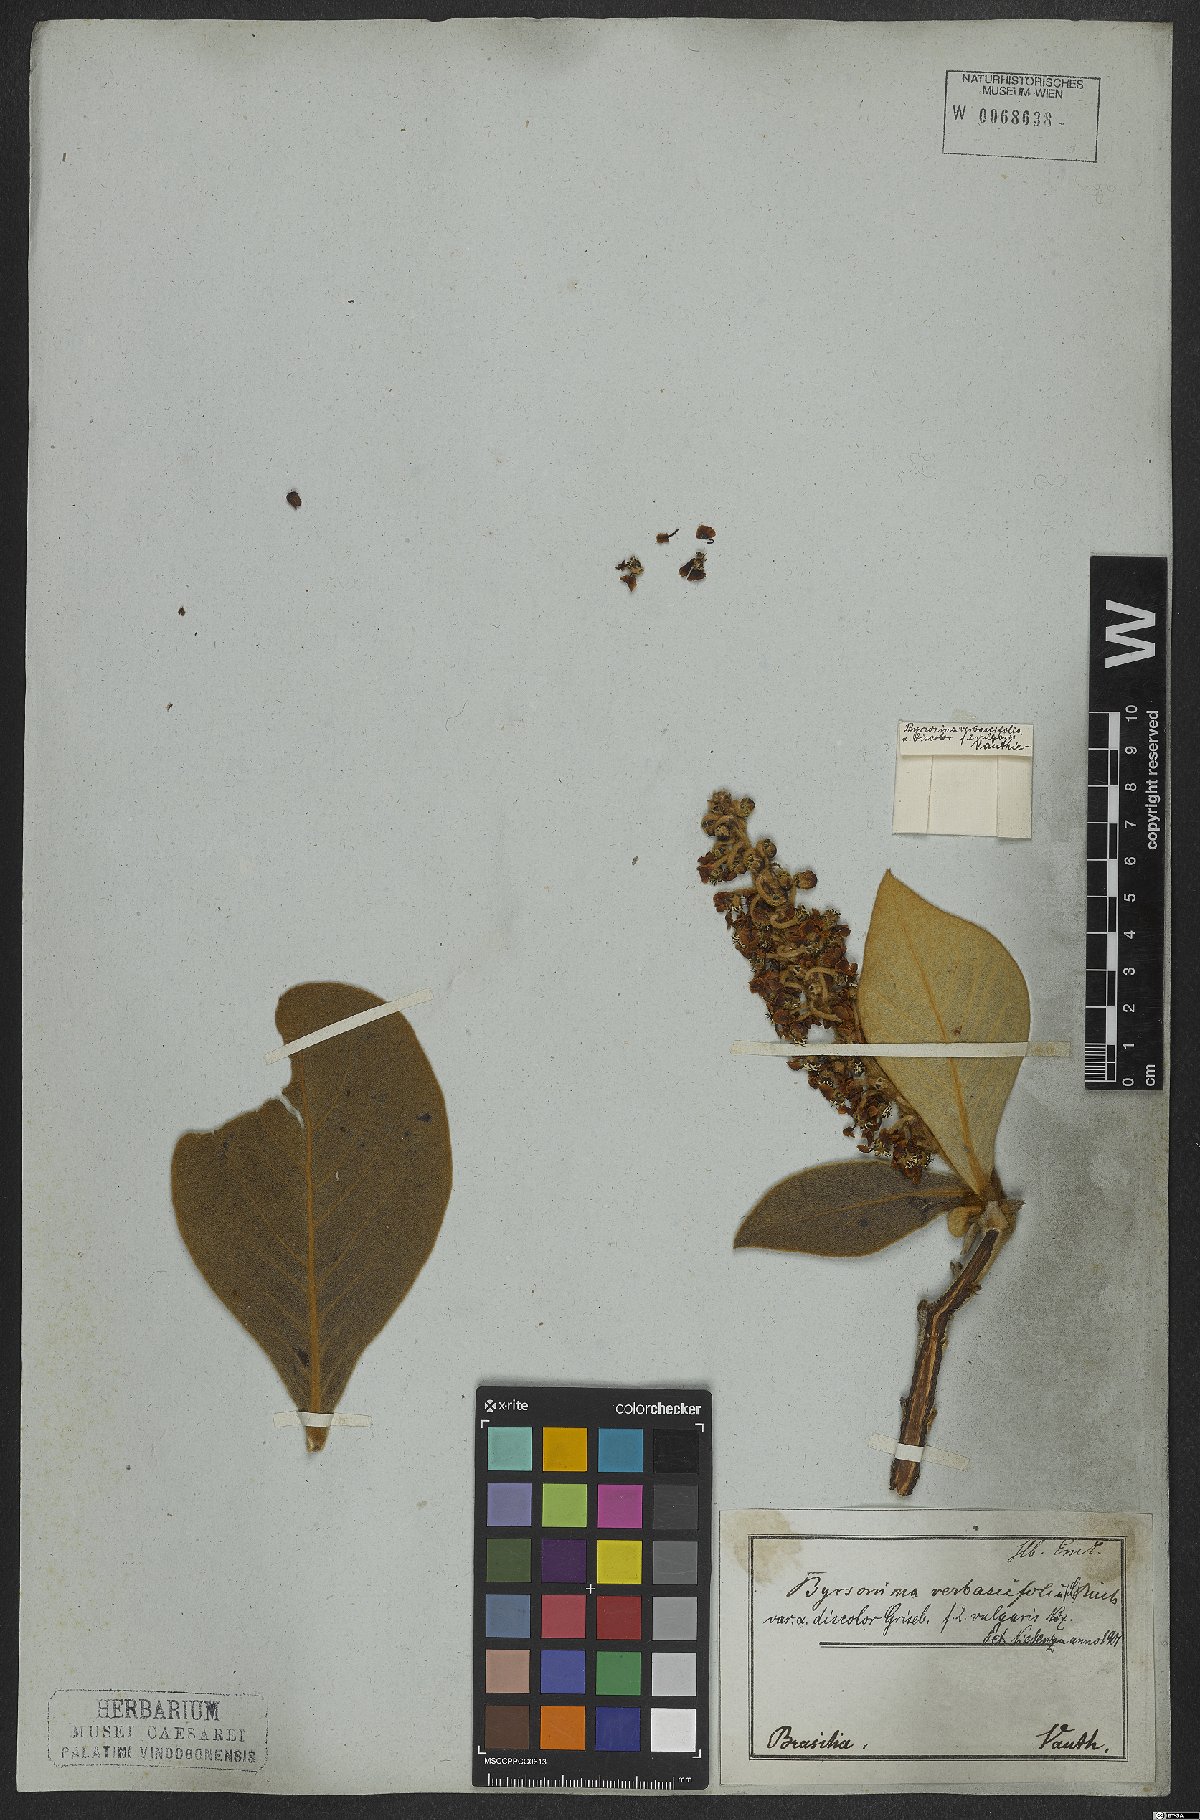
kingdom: Plantae
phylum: Tracheophyta
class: Magnoliopsida
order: Malpighiales
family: Malpighiaceae
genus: Byrsonima
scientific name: Byrsonima verbascifolia
